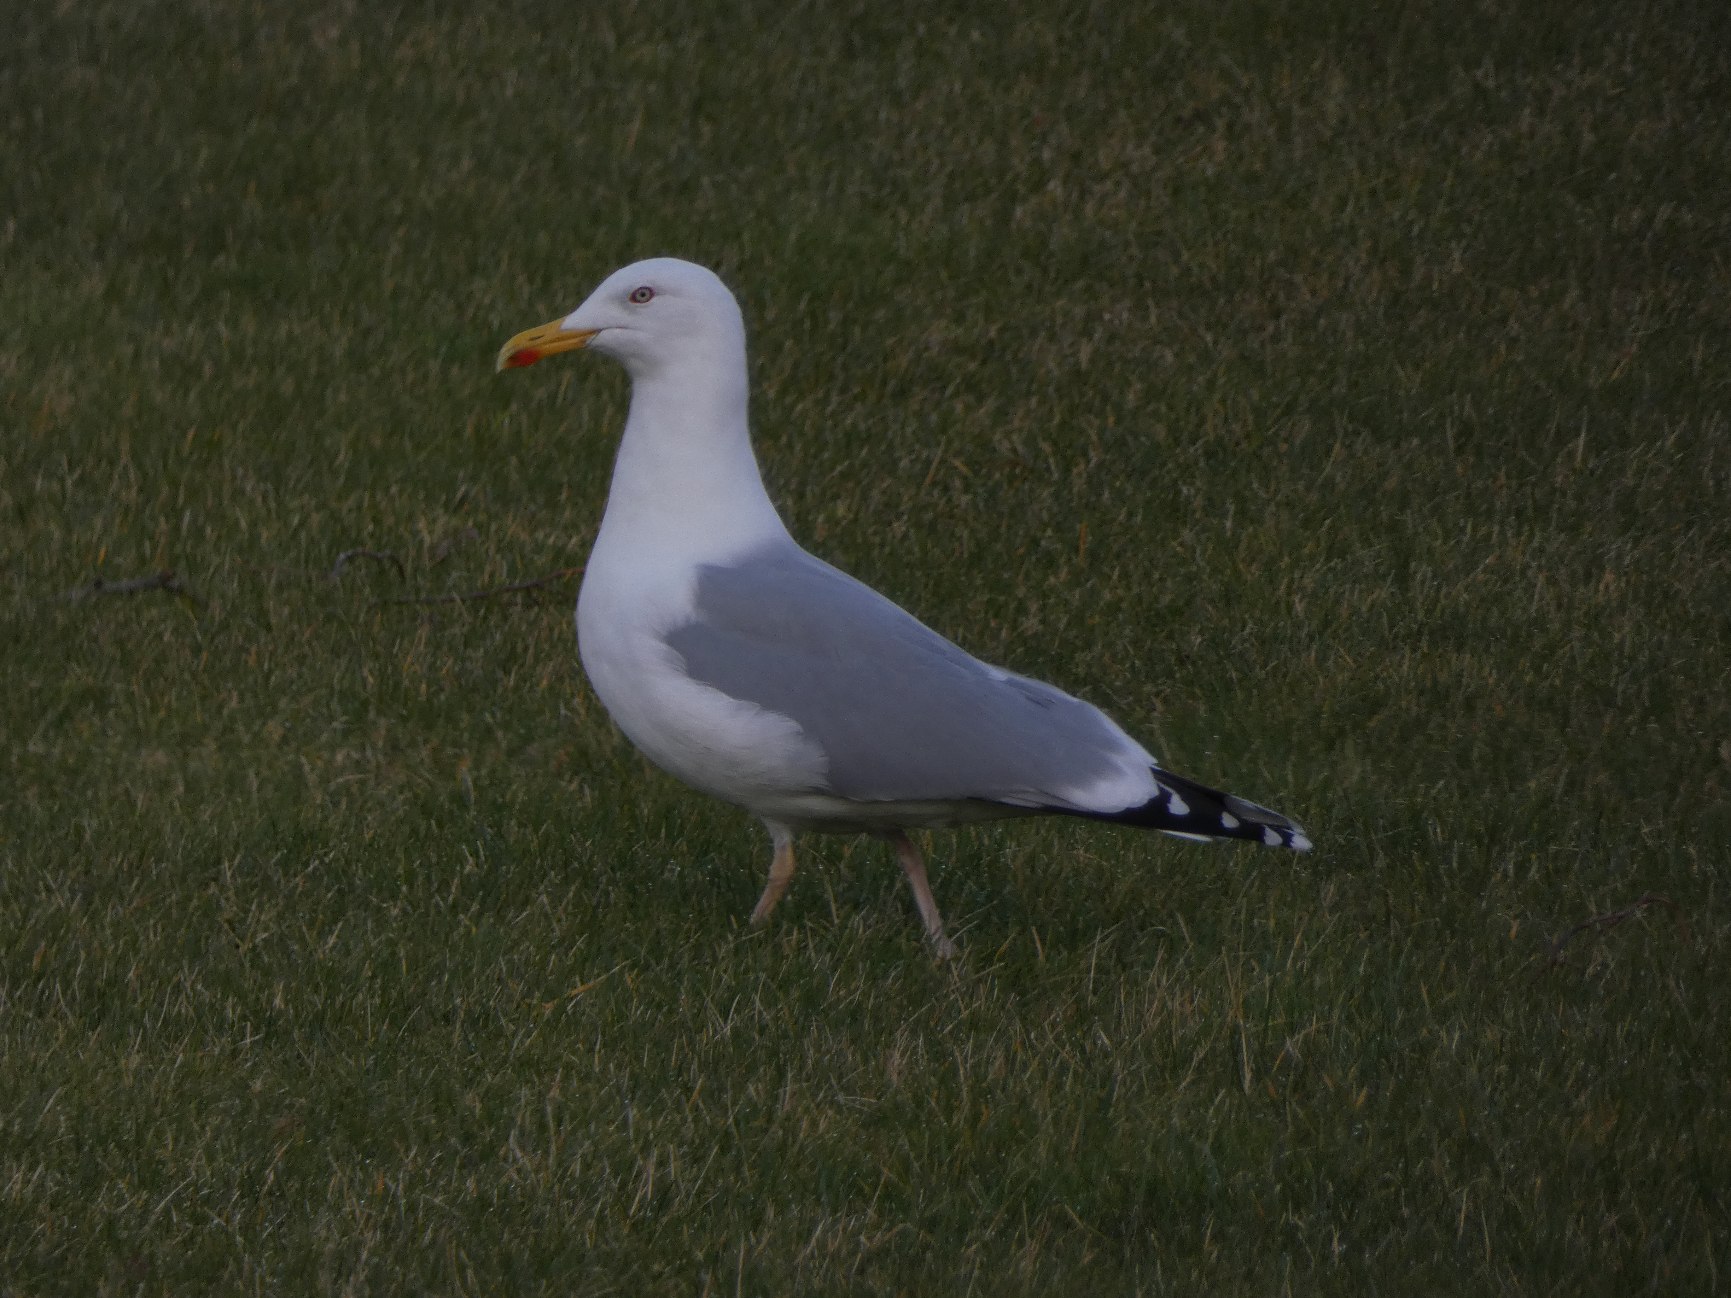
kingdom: Animalia
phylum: Chordata
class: Aves
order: Charadriiformes
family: Laridae
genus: Larus
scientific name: Larus argentatus
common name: Sølvmåge
